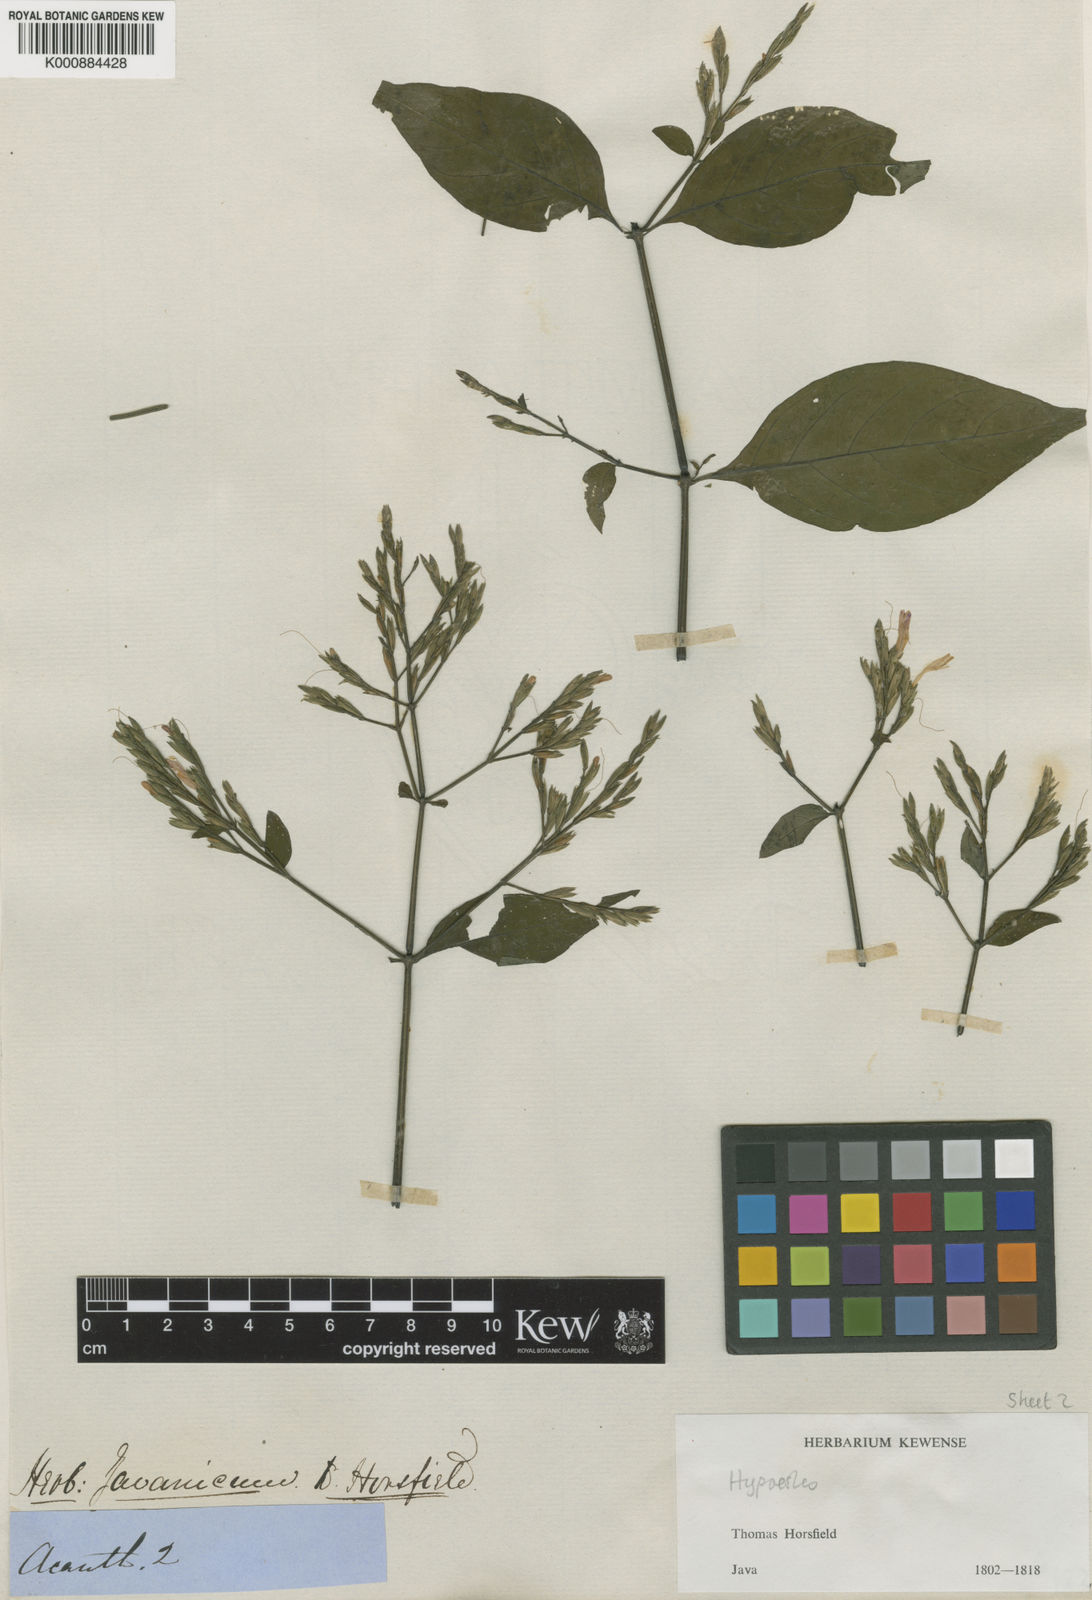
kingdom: Plantae
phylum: Tracheophyta
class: Magnoliopsida
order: Lamiales
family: Acanthaceae
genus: Hypoestes
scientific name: Hypoestes psilochlamys
